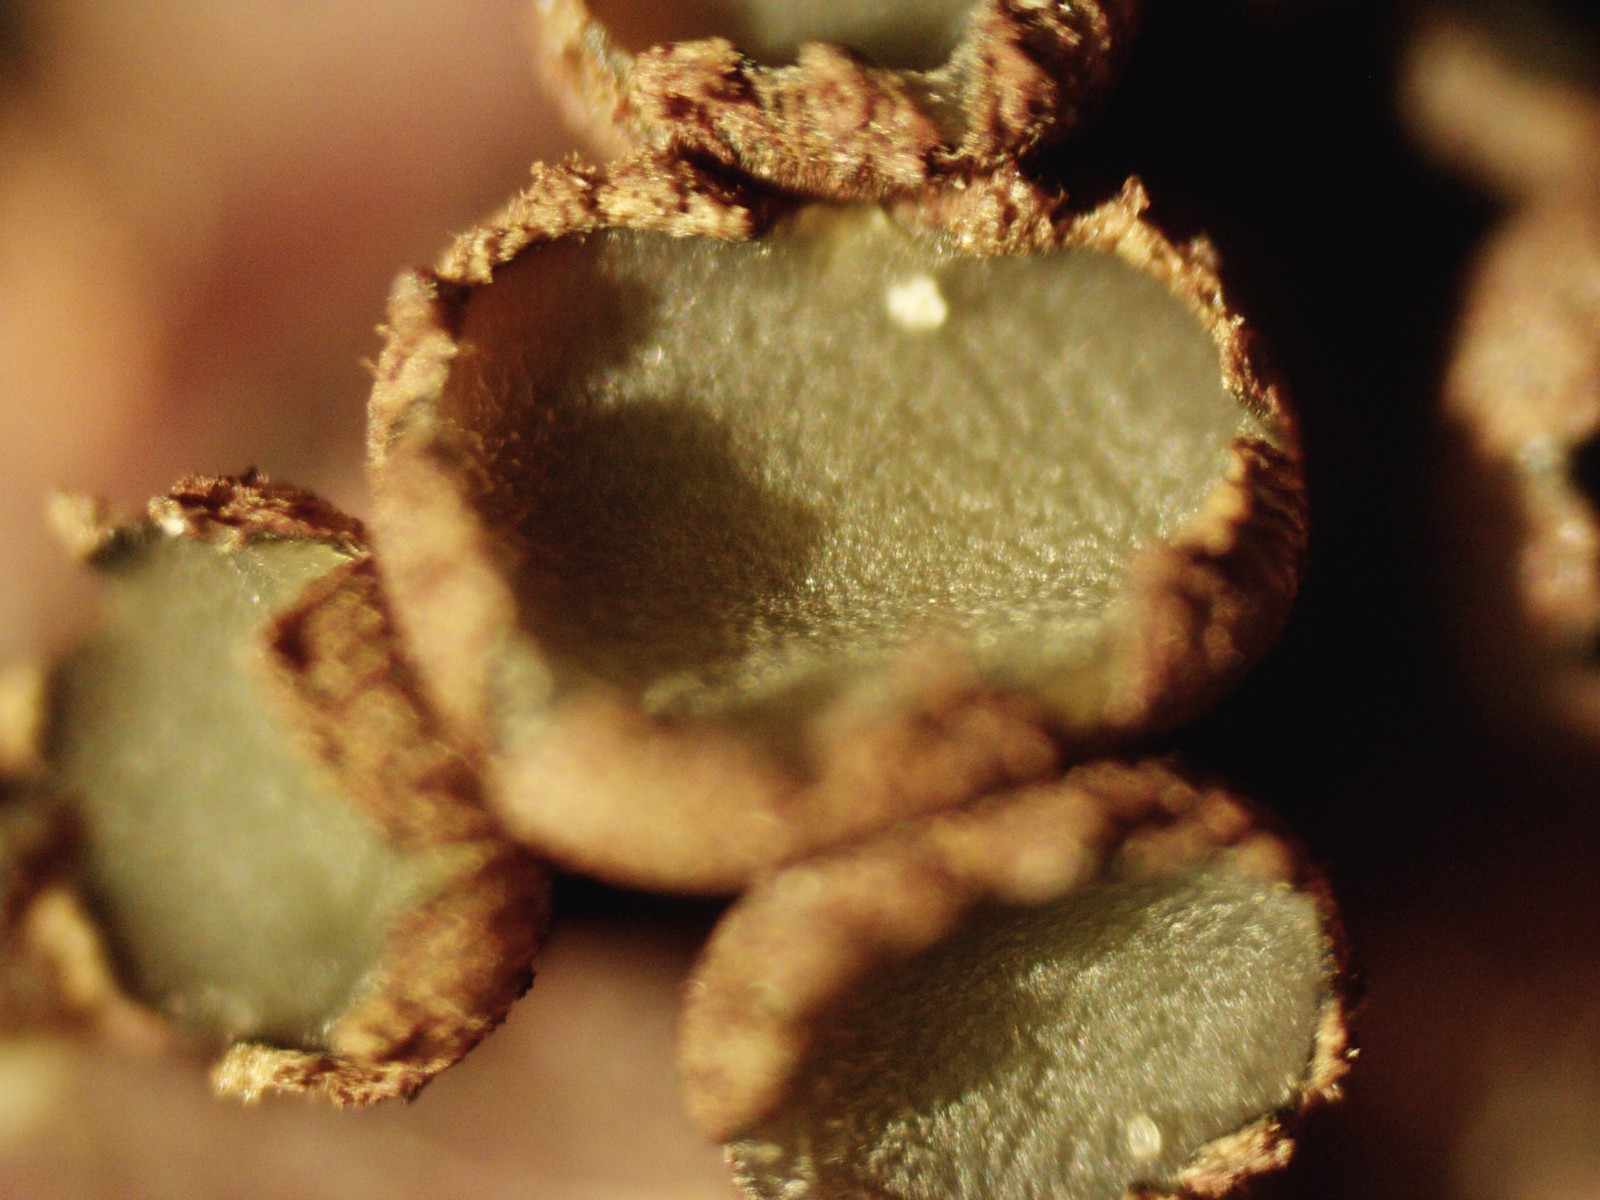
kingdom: Fungi
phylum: Ascomycota
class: Leotiomycetes
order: Helotiales
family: Godroniaceae
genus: Godronia
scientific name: Godronia uberiformis
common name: solbær-urneskive
